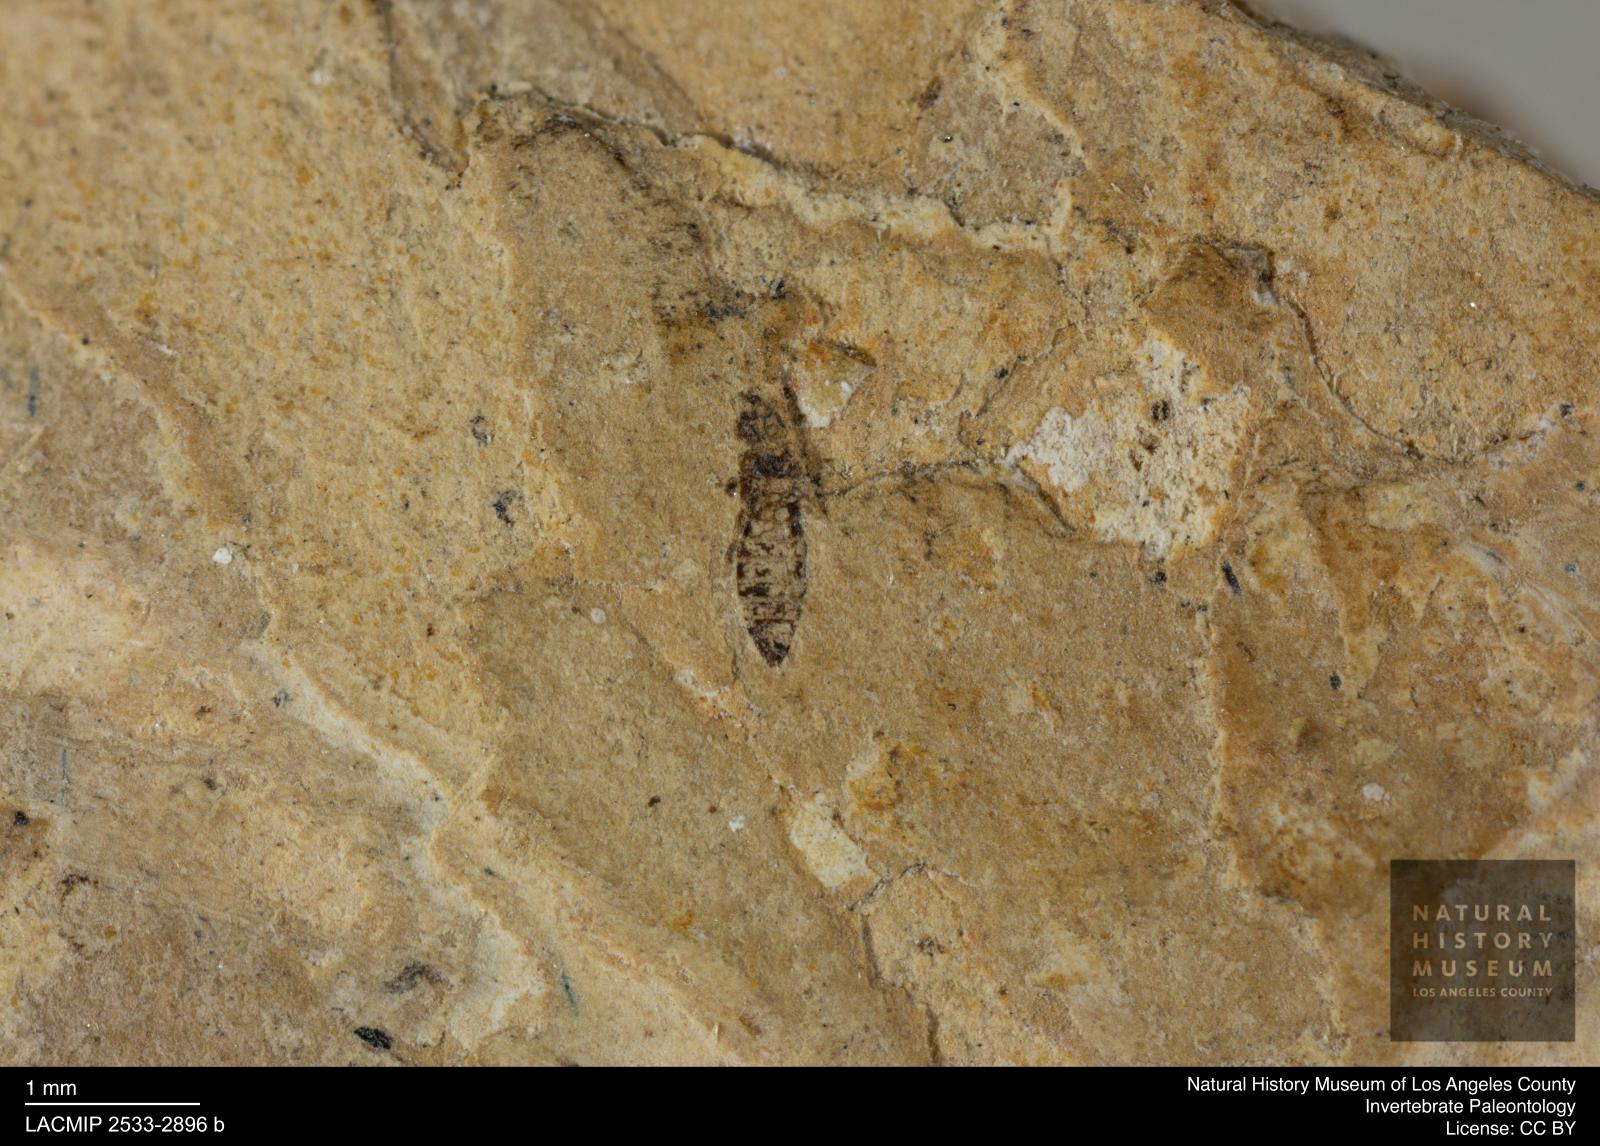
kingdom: Animalia
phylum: Arthropoda
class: Insecta
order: Thysanoptera
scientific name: Thysanoptera
